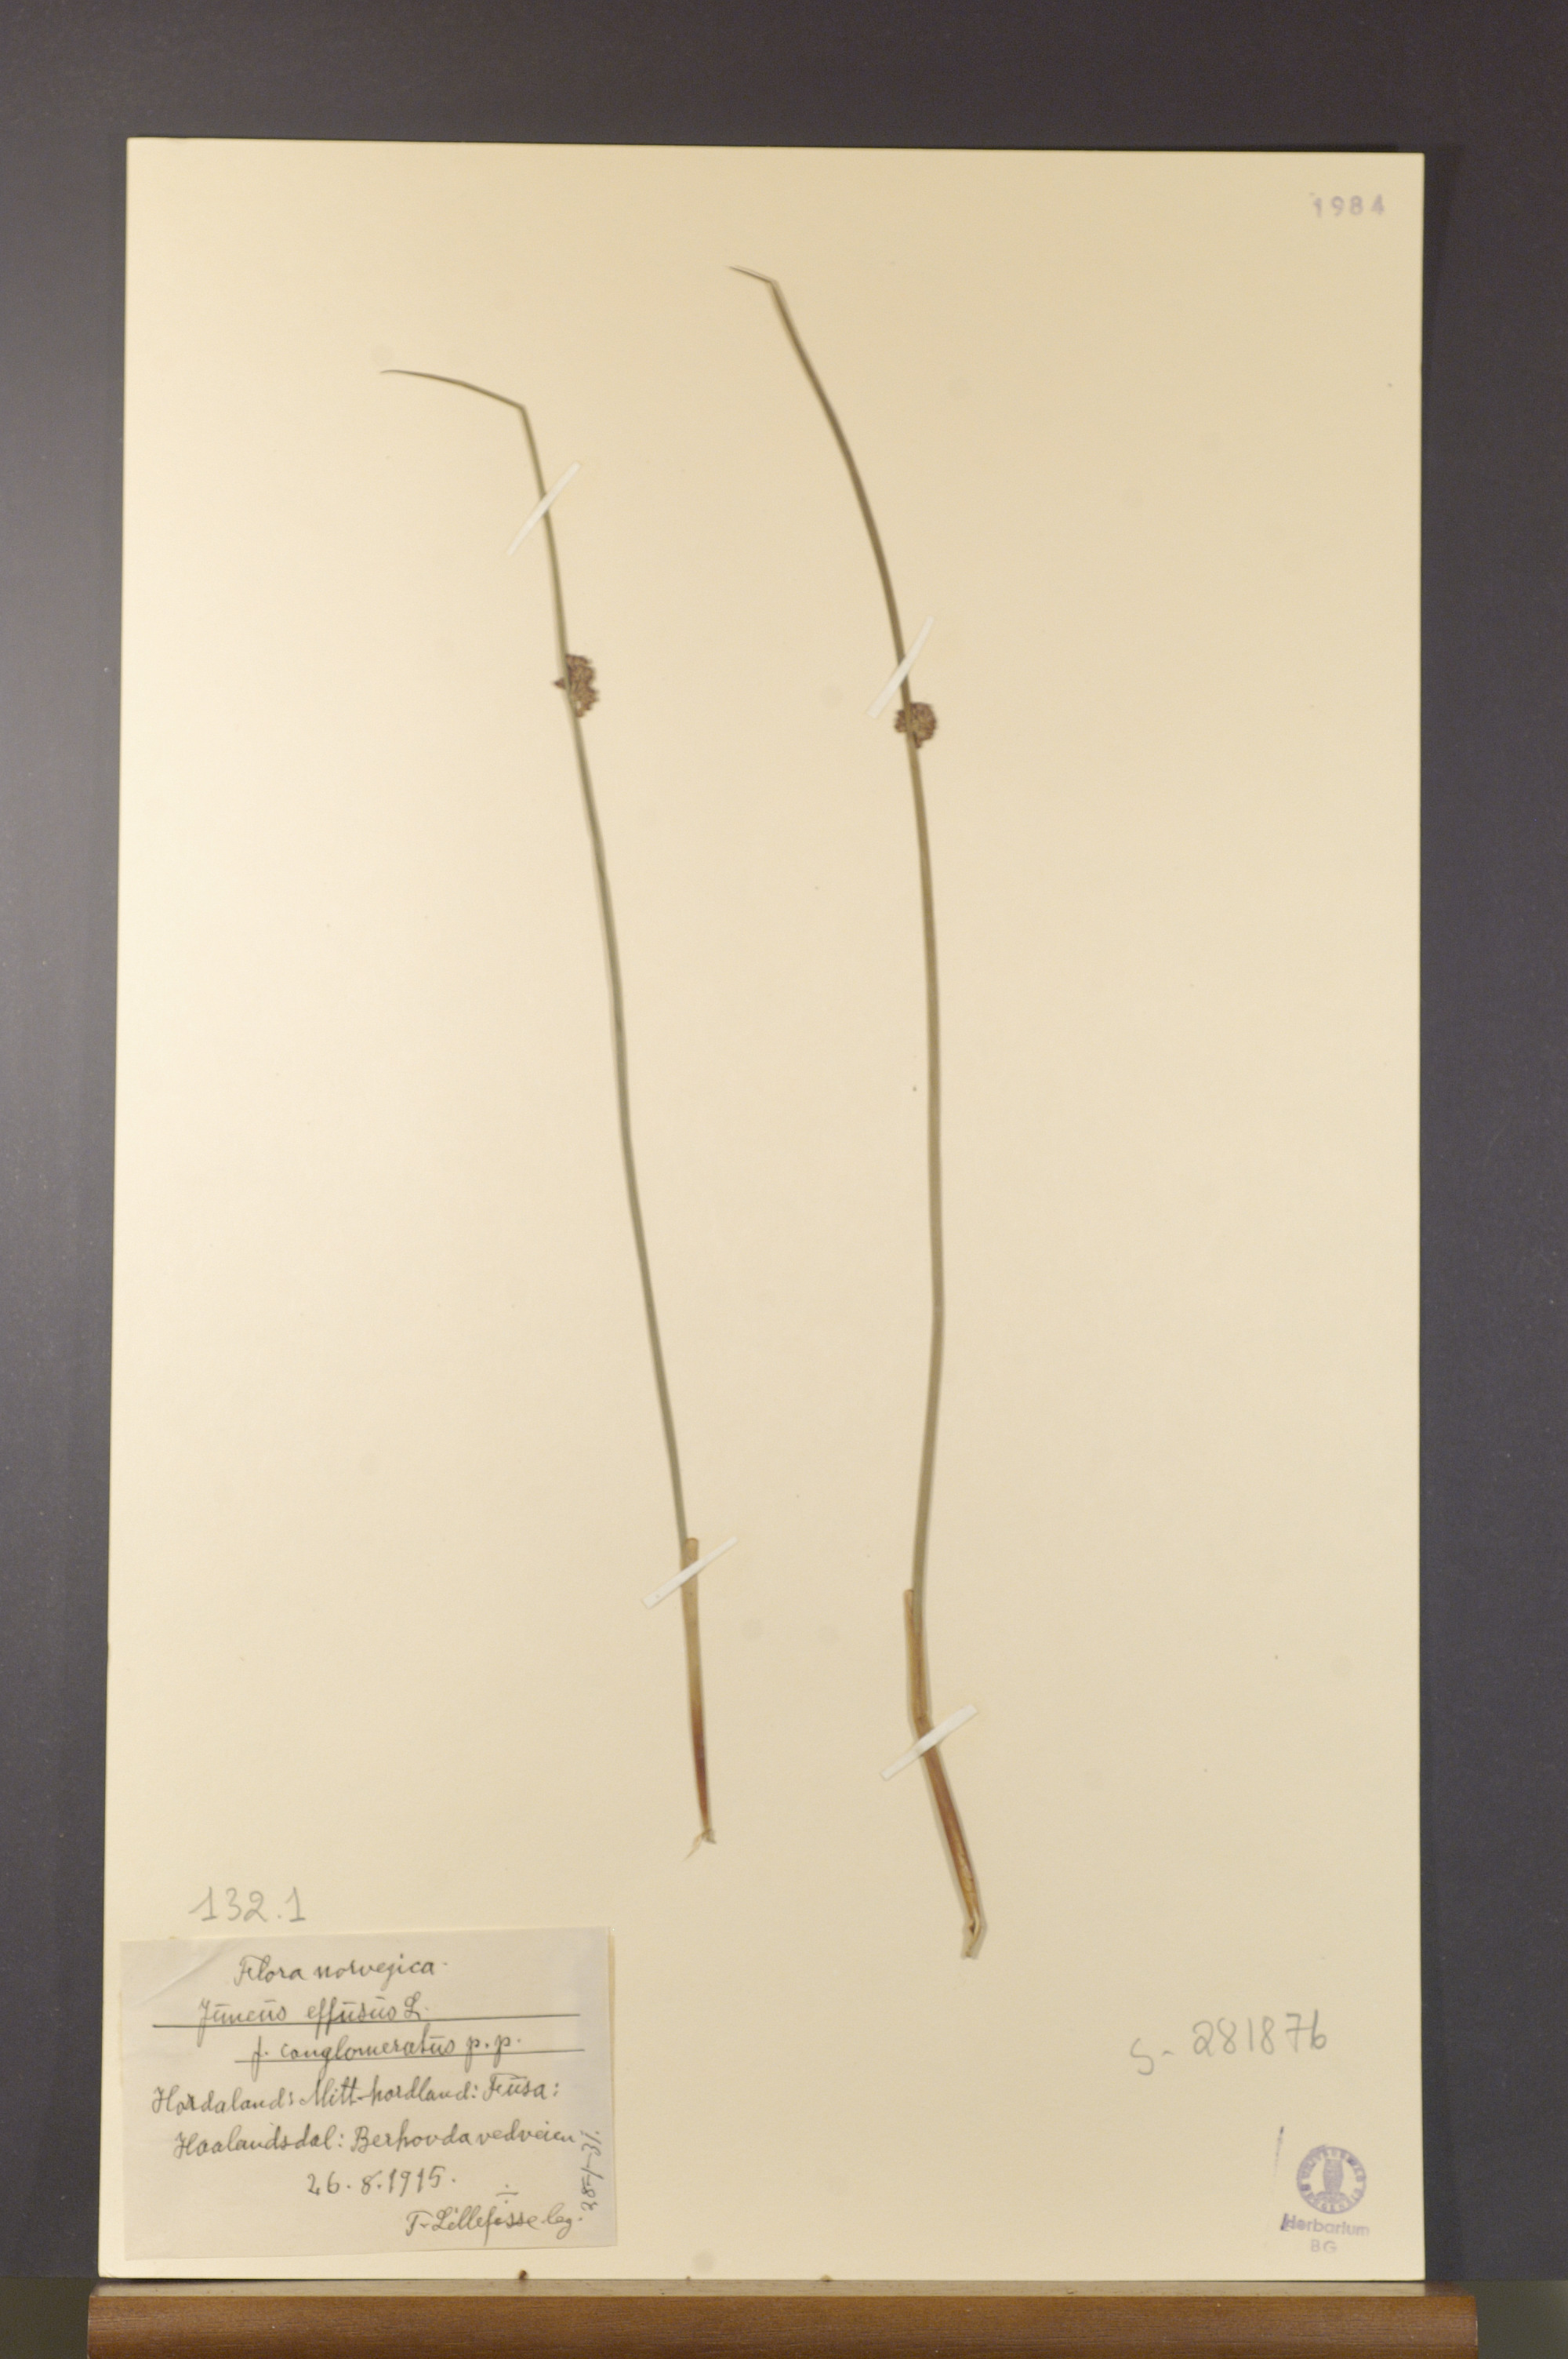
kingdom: Plantae
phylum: Tracheophyta
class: Liliopsida
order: Poales
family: Juncaceae
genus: Juncus
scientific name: Juncus effusus
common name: Soft rush
